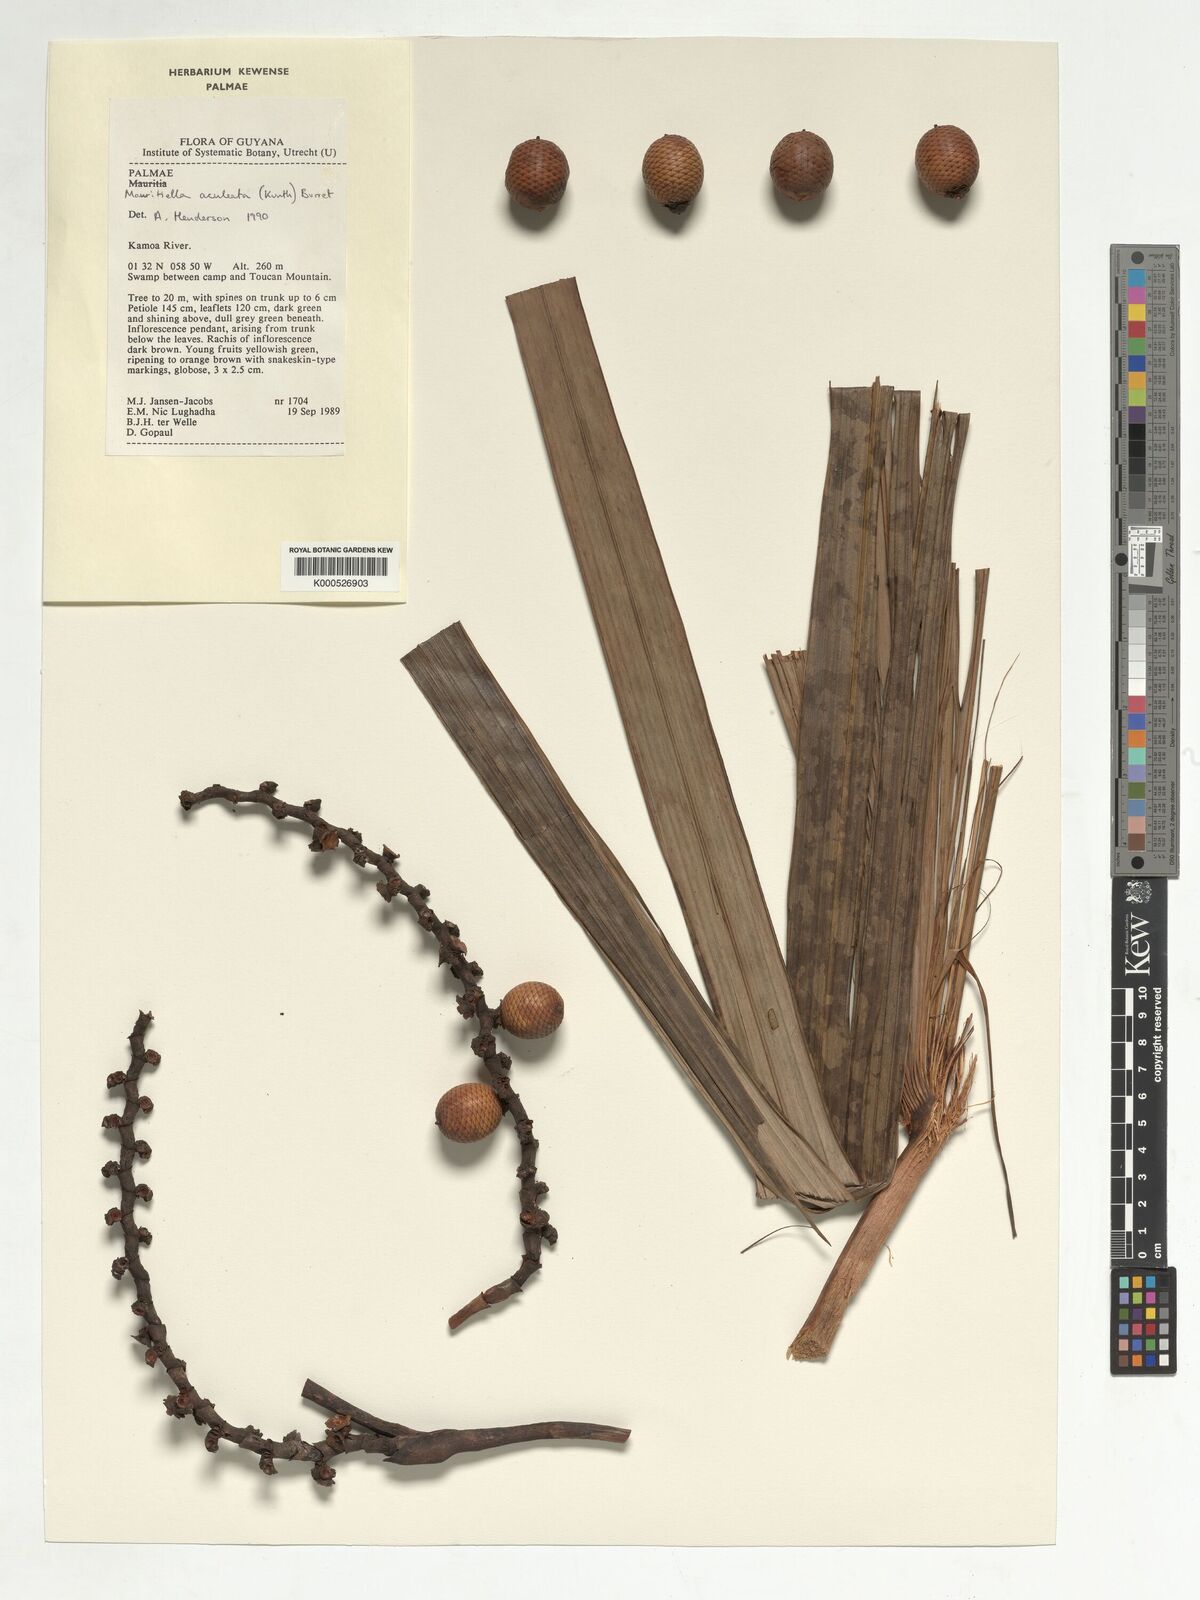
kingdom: Plantae
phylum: Tracheophyta
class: Liliopsida
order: Arecales
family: Arecaceae
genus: Mauritiella
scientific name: Mauritiella aculeata
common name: Buritirana
